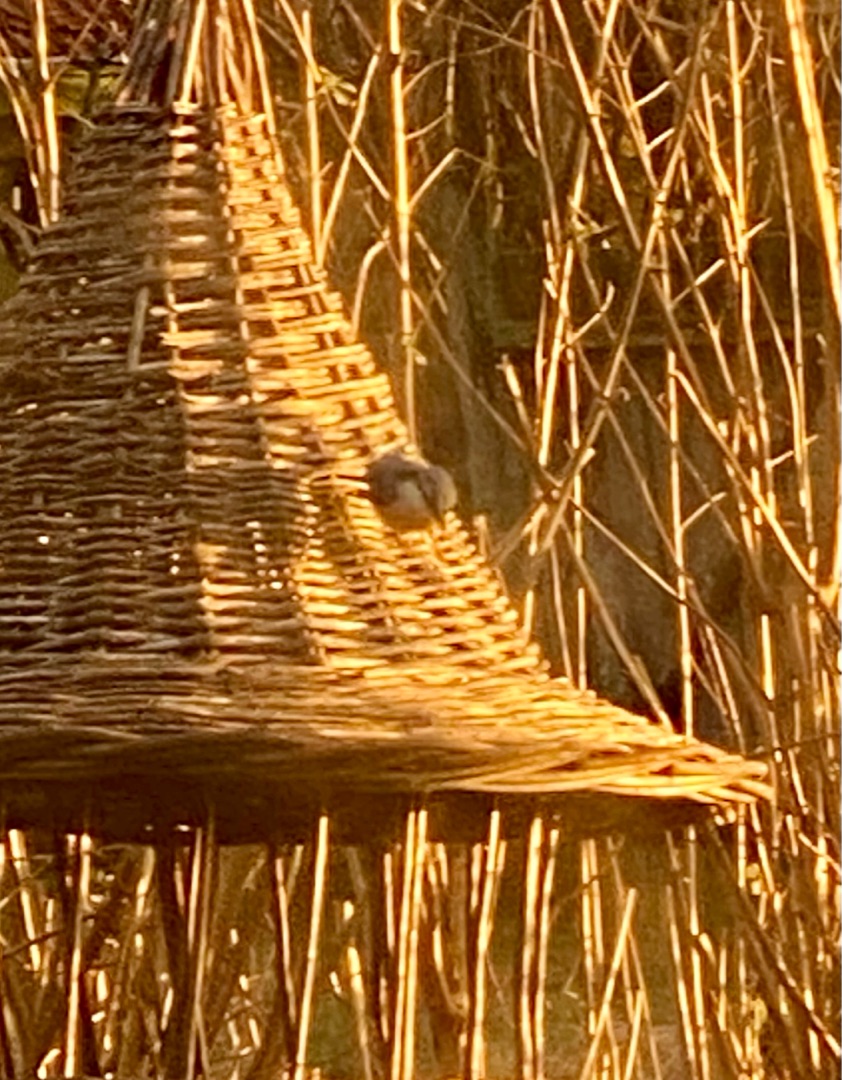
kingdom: Animalia
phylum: Chordata
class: Aves
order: Passeriformes
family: Sittidae
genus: Sitta
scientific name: Sitta europaea
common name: Spætmejse
